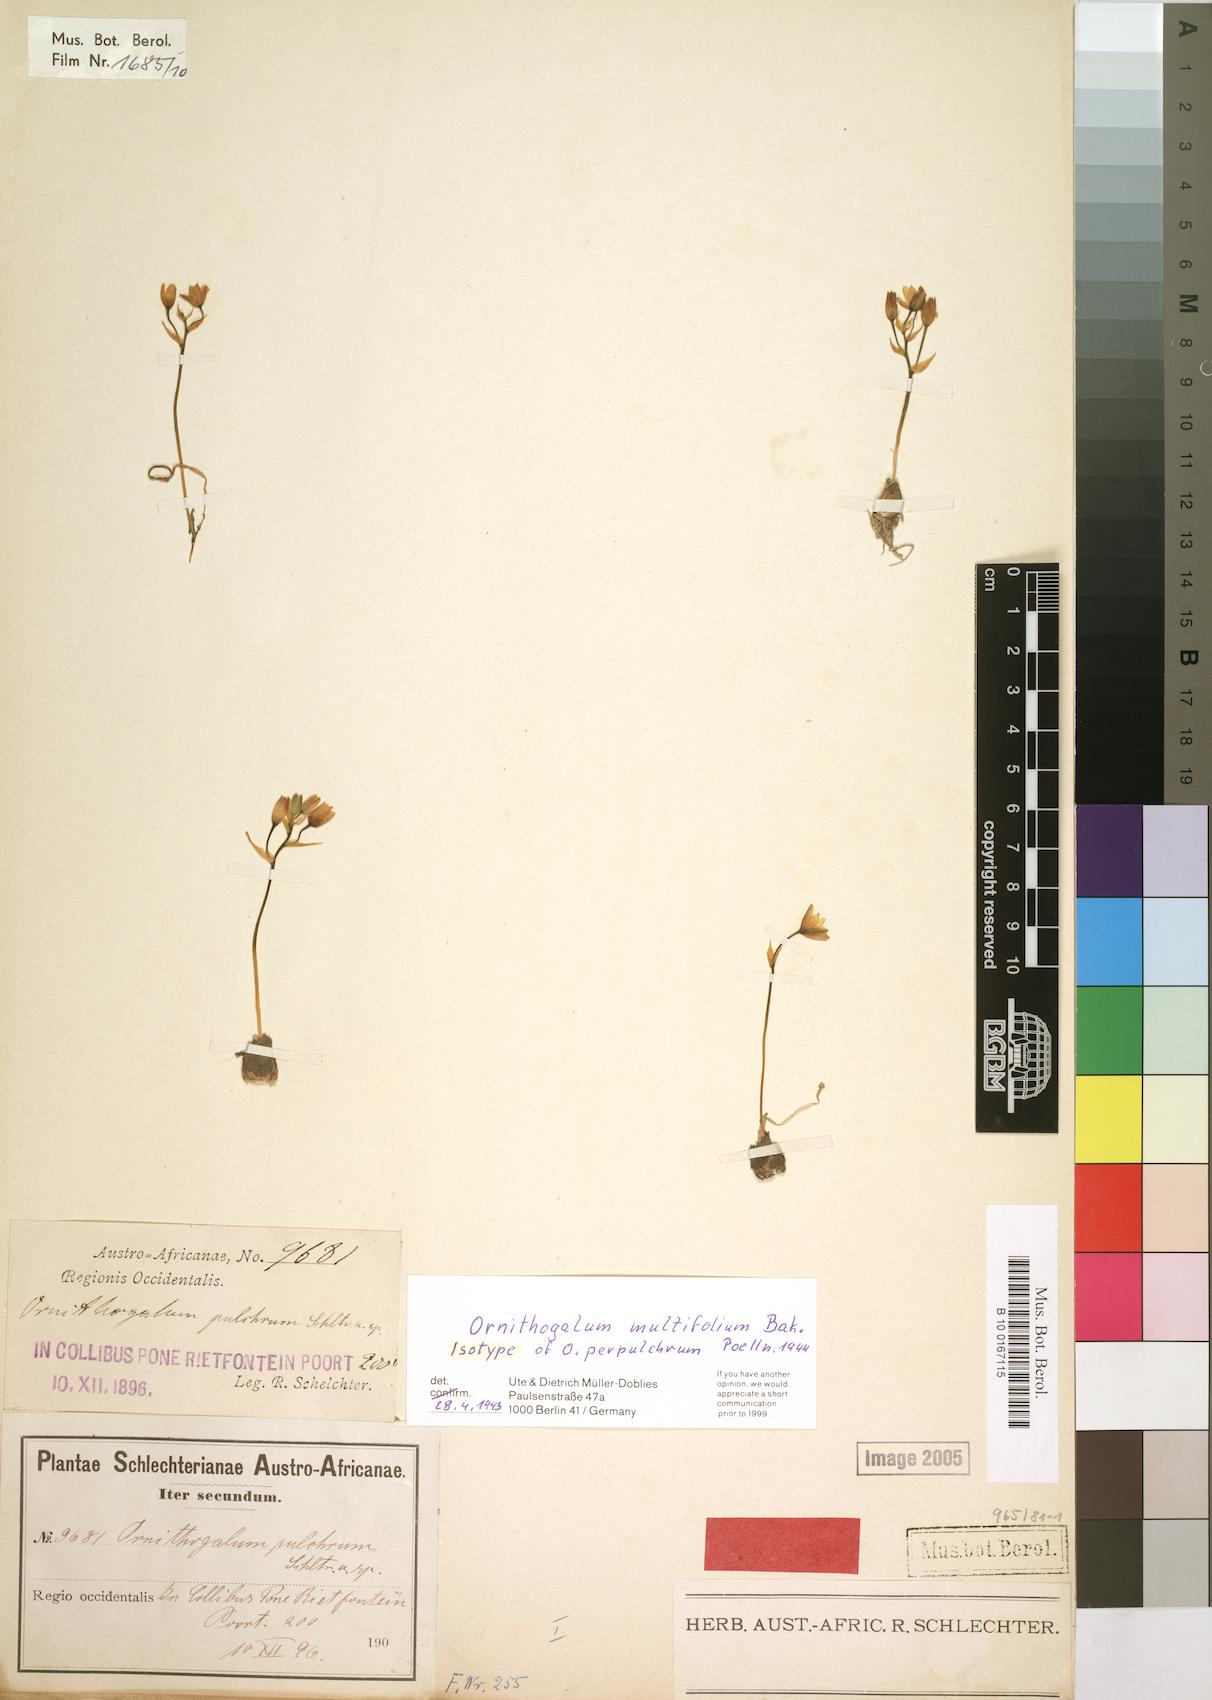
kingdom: Plantae
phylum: Tracheophyta
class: Liliopsida
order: Asparagales
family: Asparagaceae
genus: Ornithogalum
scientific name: Ornithogalum multifolium
